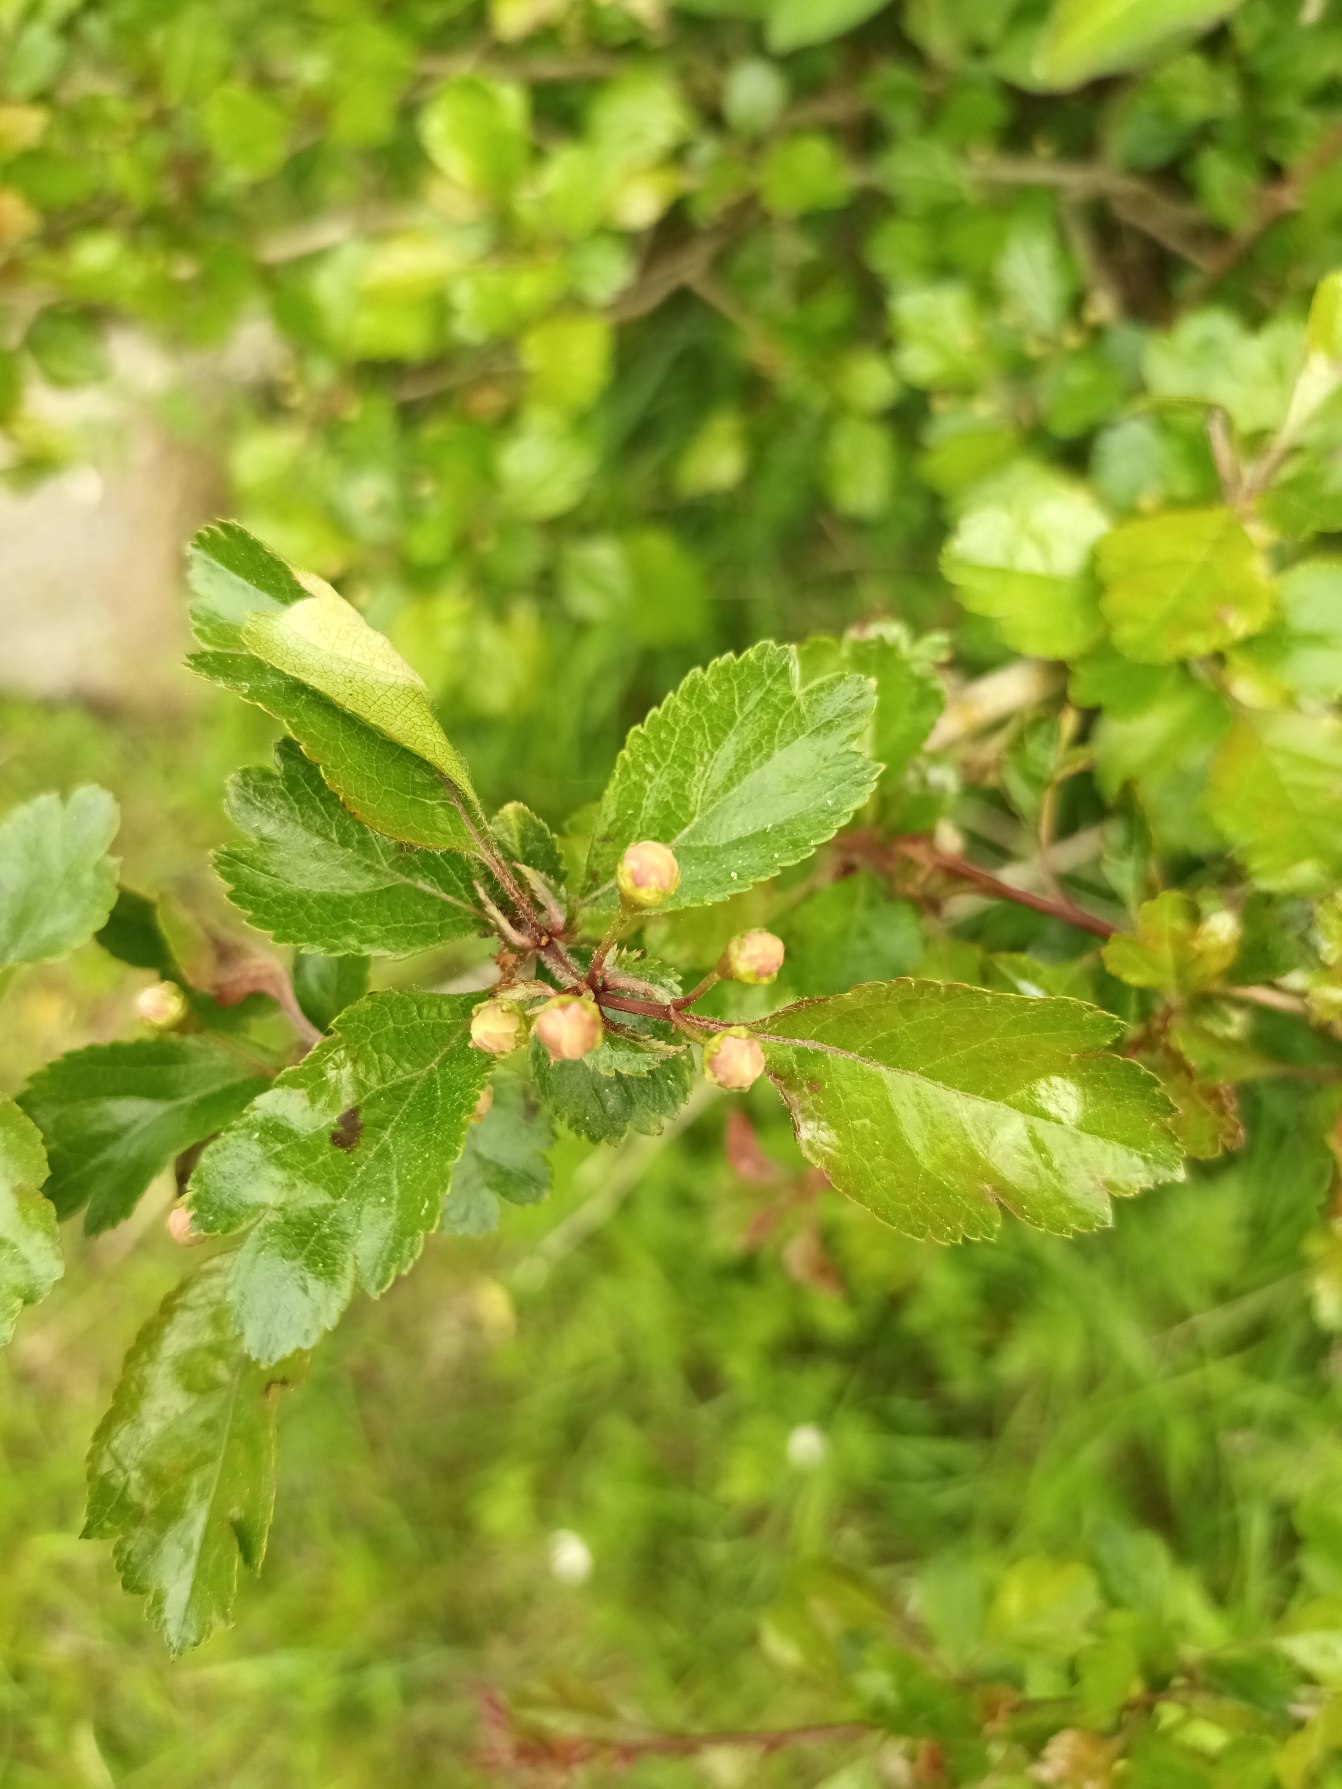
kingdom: Plantae
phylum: Tracheophyta
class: Magnoliopsida
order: Rosales
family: Rosaceae
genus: Crataegus
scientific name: Crataegus laevigata
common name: Almindelig hvidtjørn
